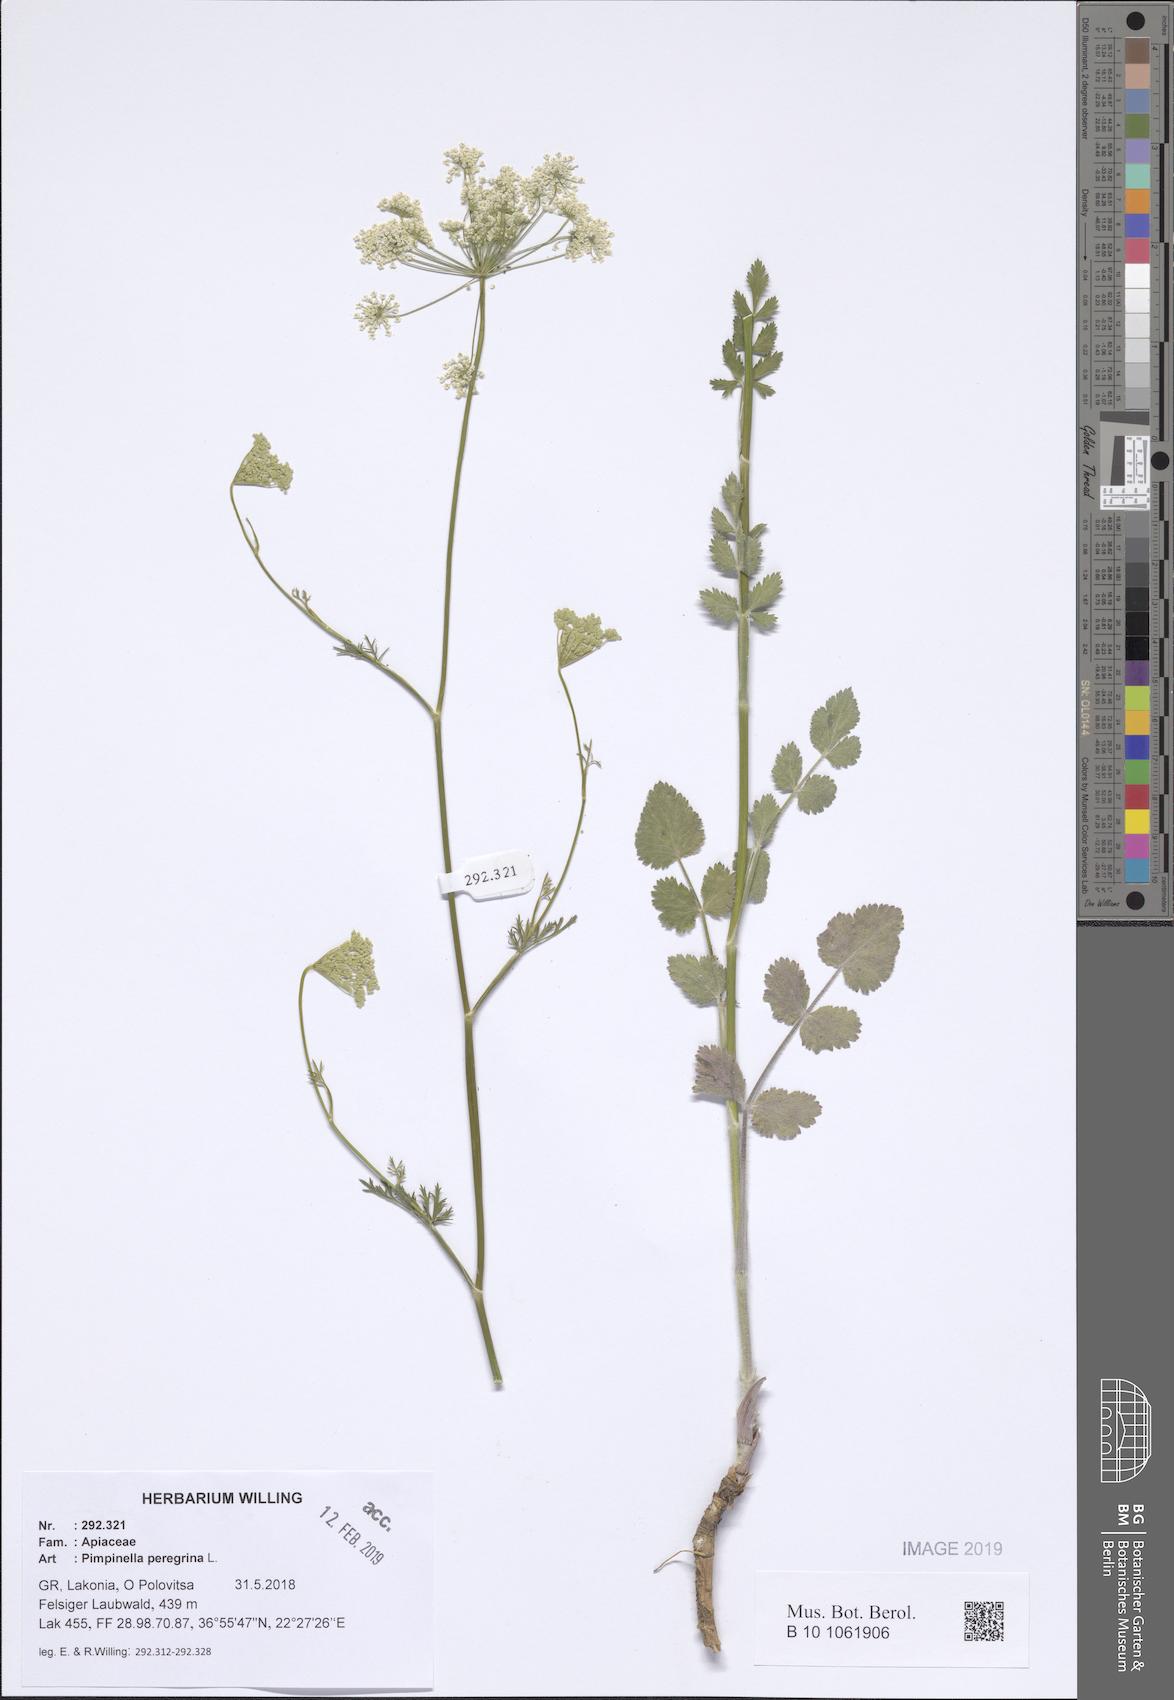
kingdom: Plantae
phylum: Tracheophyta
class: Magnoliopsida
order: Apiales
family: Apiaceae
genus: Pimpinella
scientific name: Pimpinella peregrina
